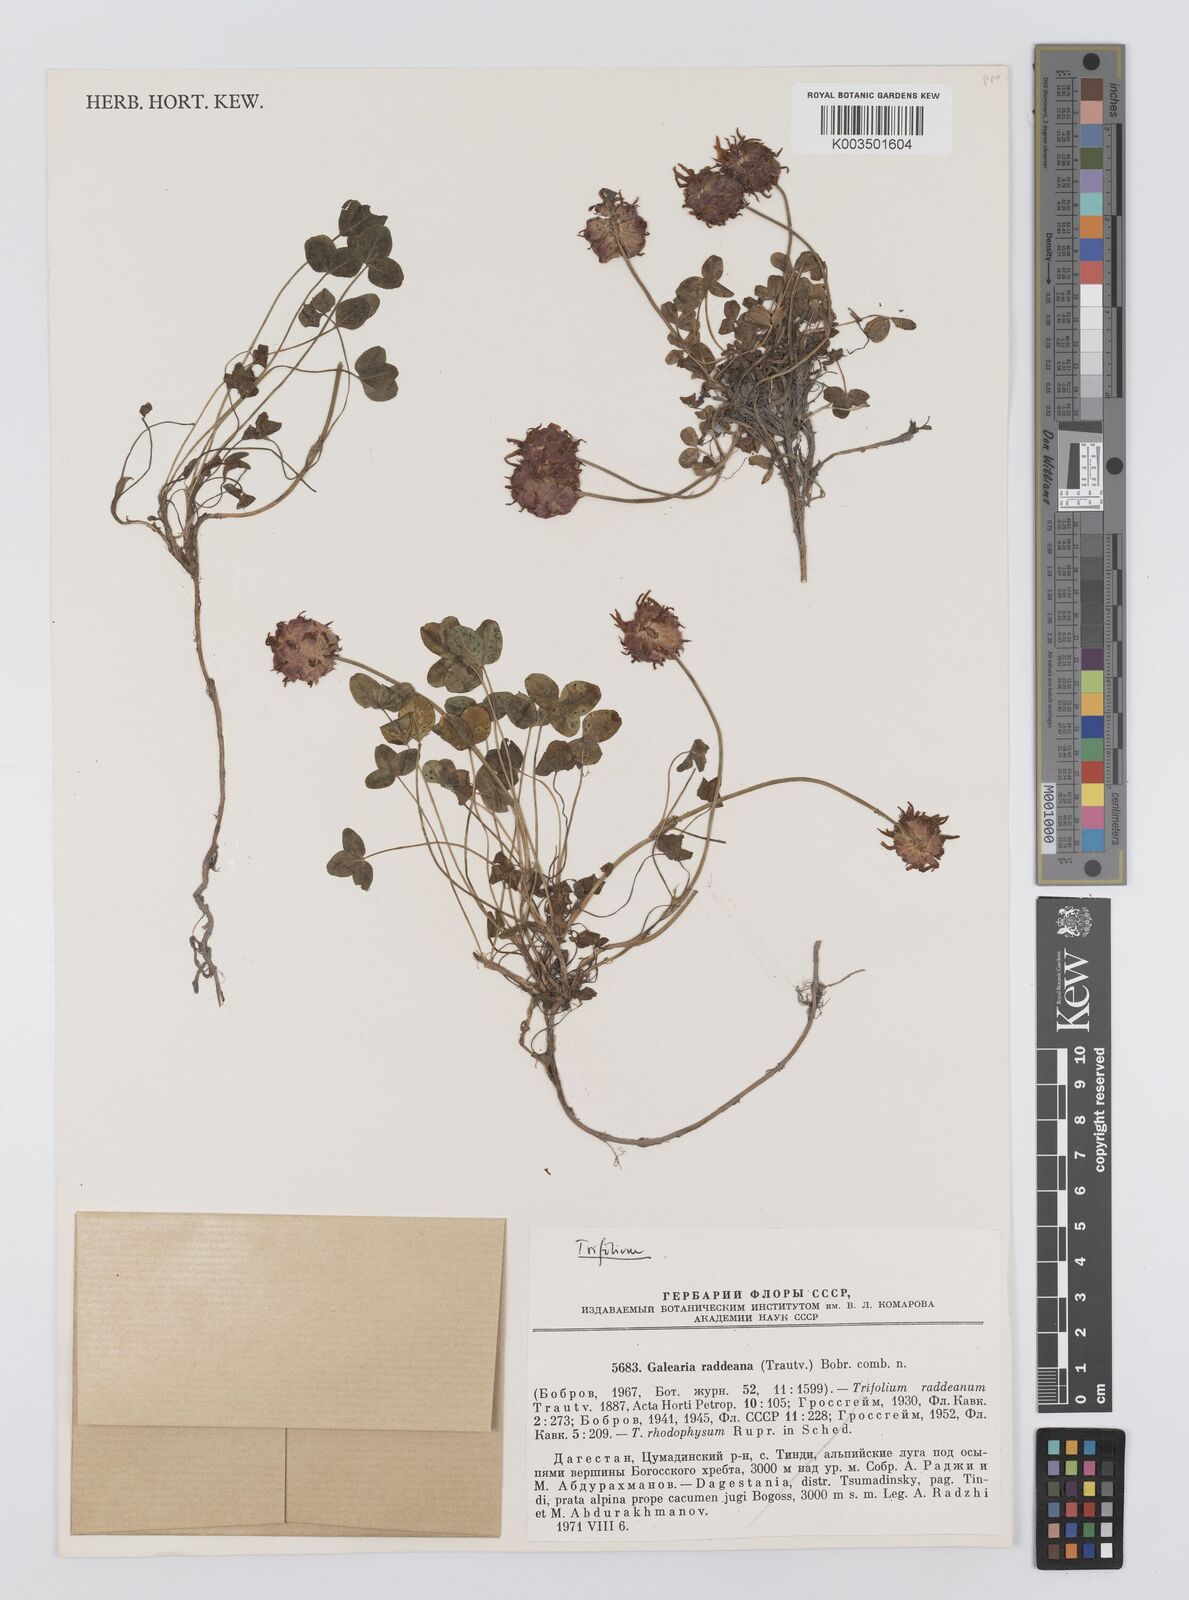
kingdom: Plantae
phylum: Tracheophyta
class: Magnoliopsida
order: Fabales
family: Fabaceae
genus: Trifolium
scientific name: Trifolium physodes
